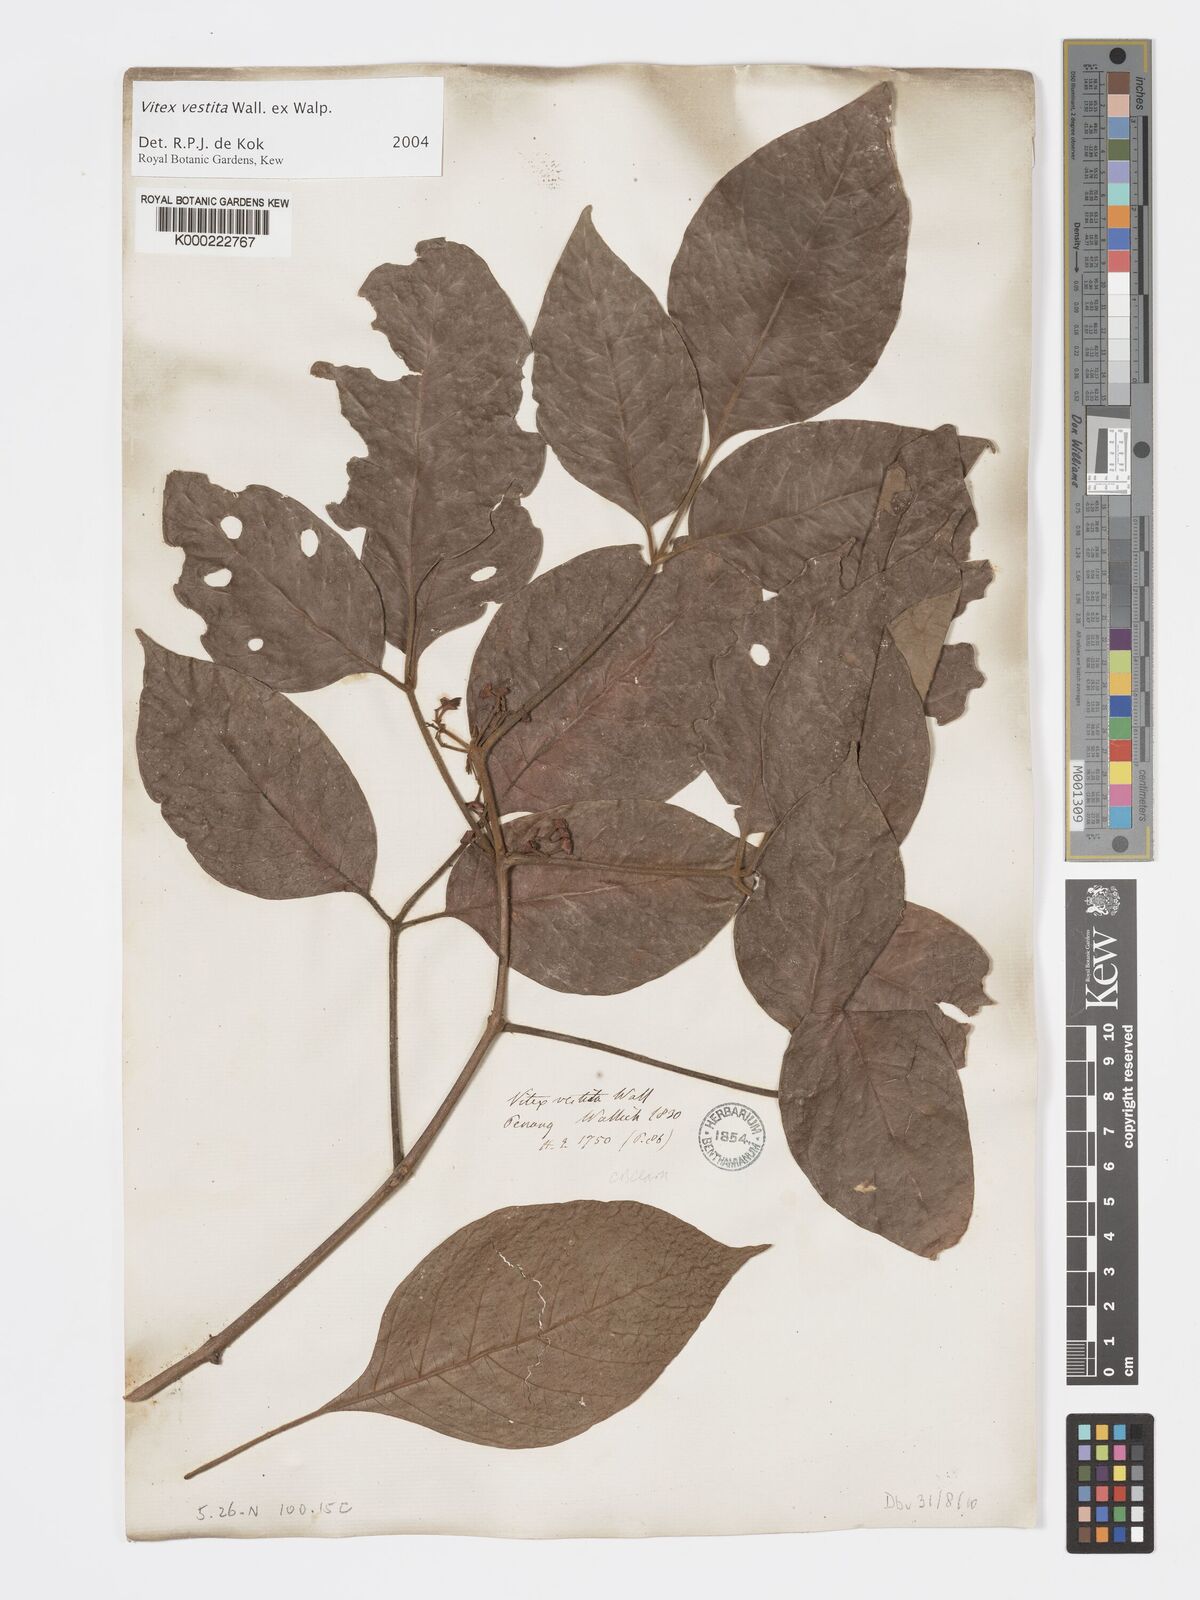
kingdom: Plantae
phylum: Tracheophyta
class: Magnoliopsida
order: Lamiales
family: Lamiaceae
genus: Vitex
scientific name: Vitex vestita
